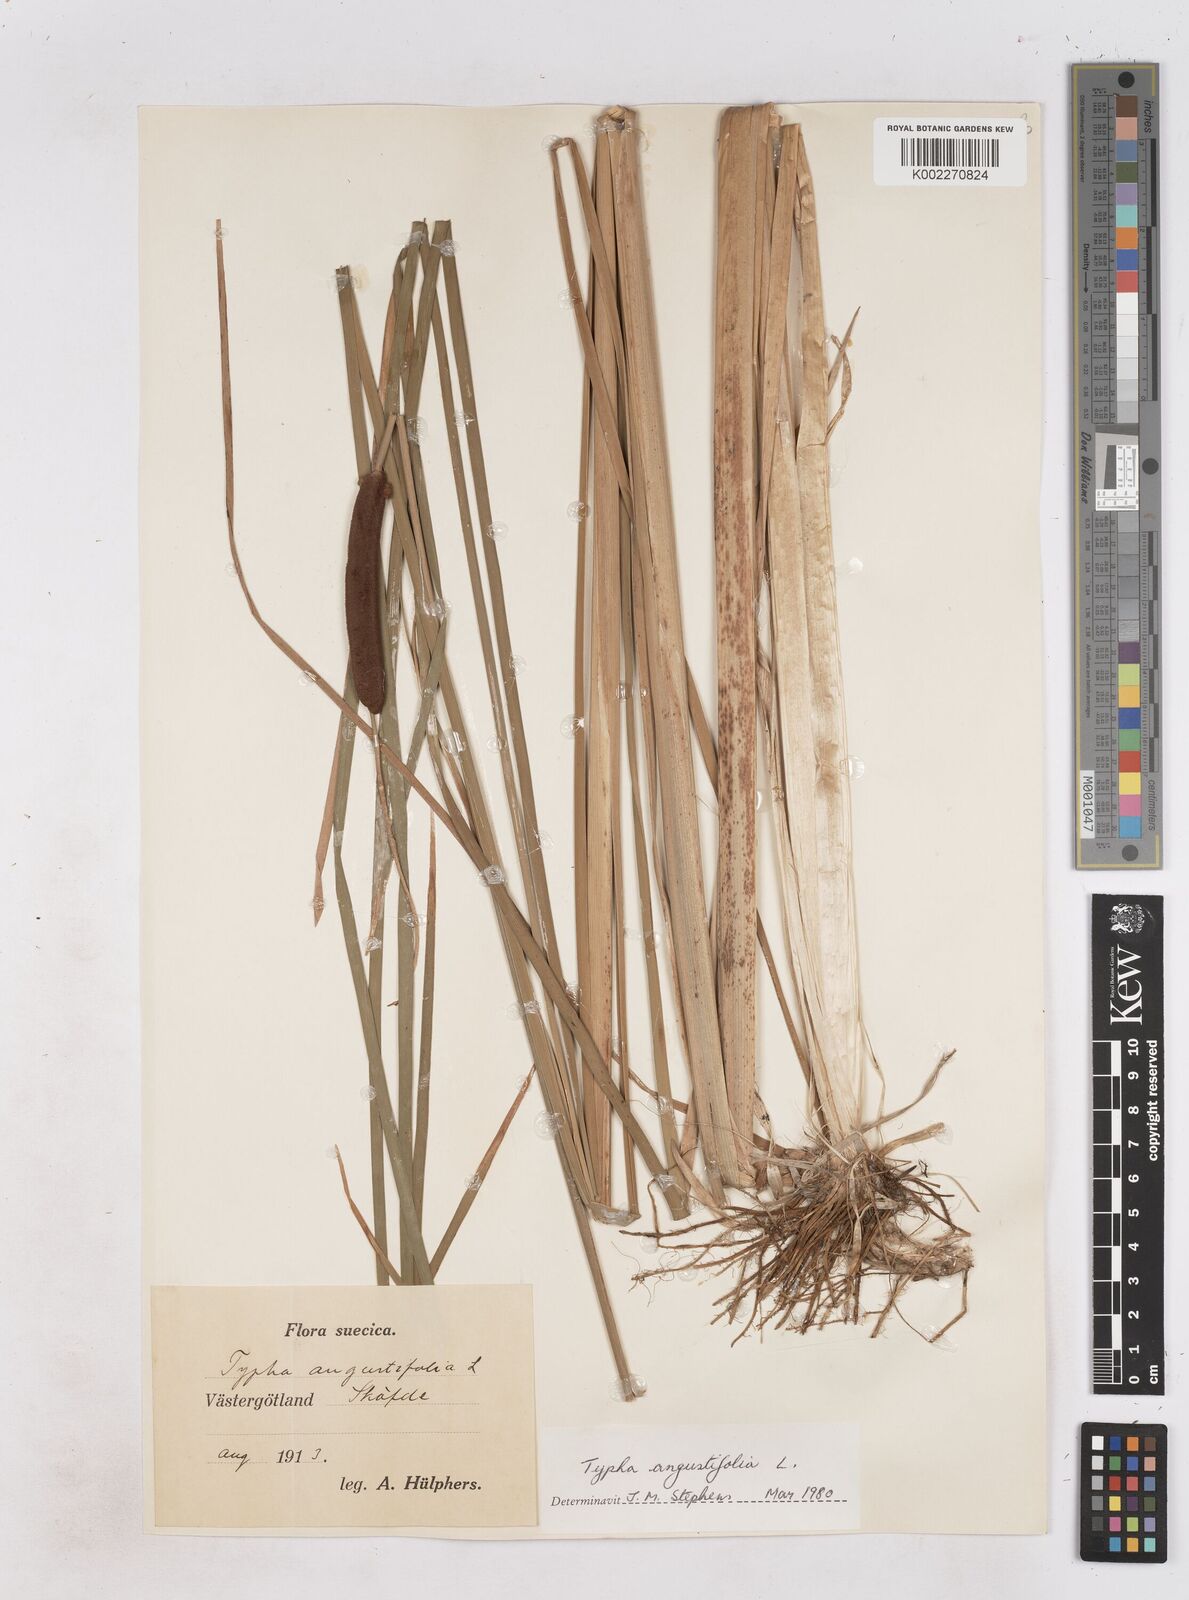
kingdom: Plantae
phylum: Tracheophyta
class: Liliopsida
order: Poales
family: Typhaceae
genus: Typha
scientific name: Typha angustifolia
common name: Lesser bulrush
